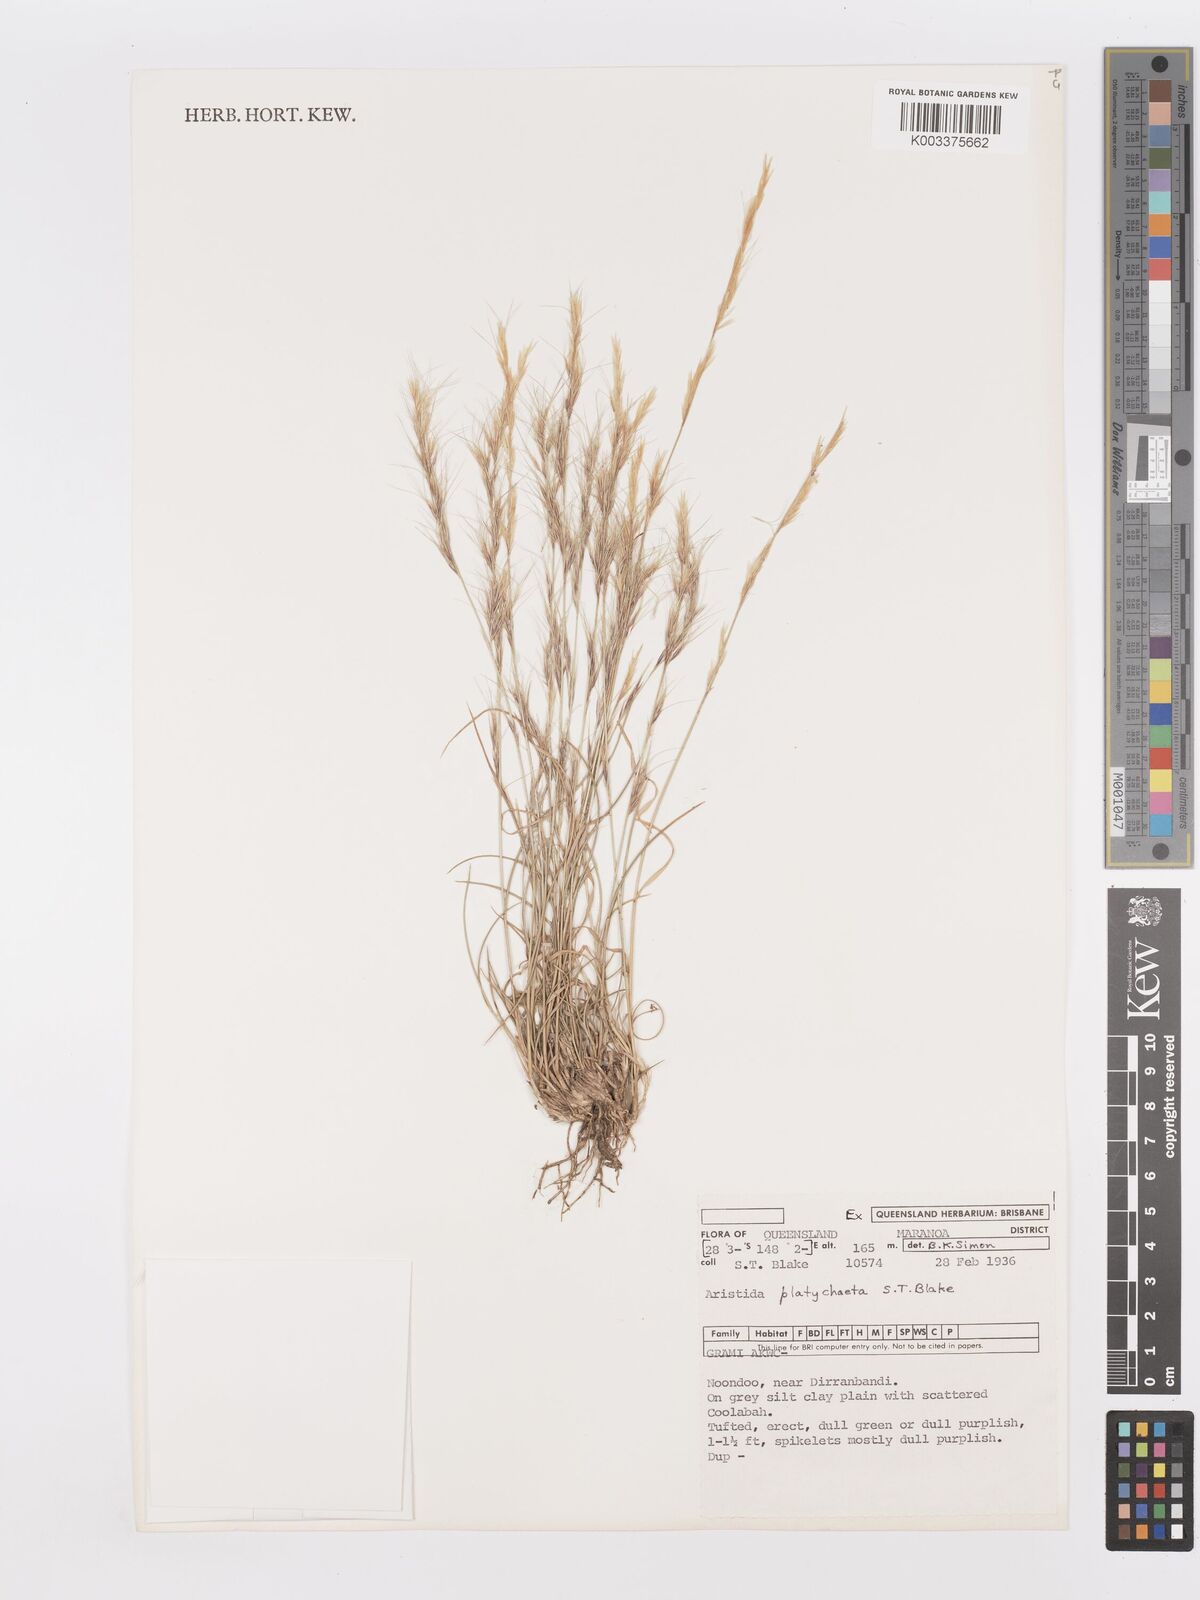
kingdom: Plantae
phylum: Tracheophyta
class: Liliopsida
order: Poales
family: Poaceae
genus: Aristida
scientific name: Aristida platychaeta
